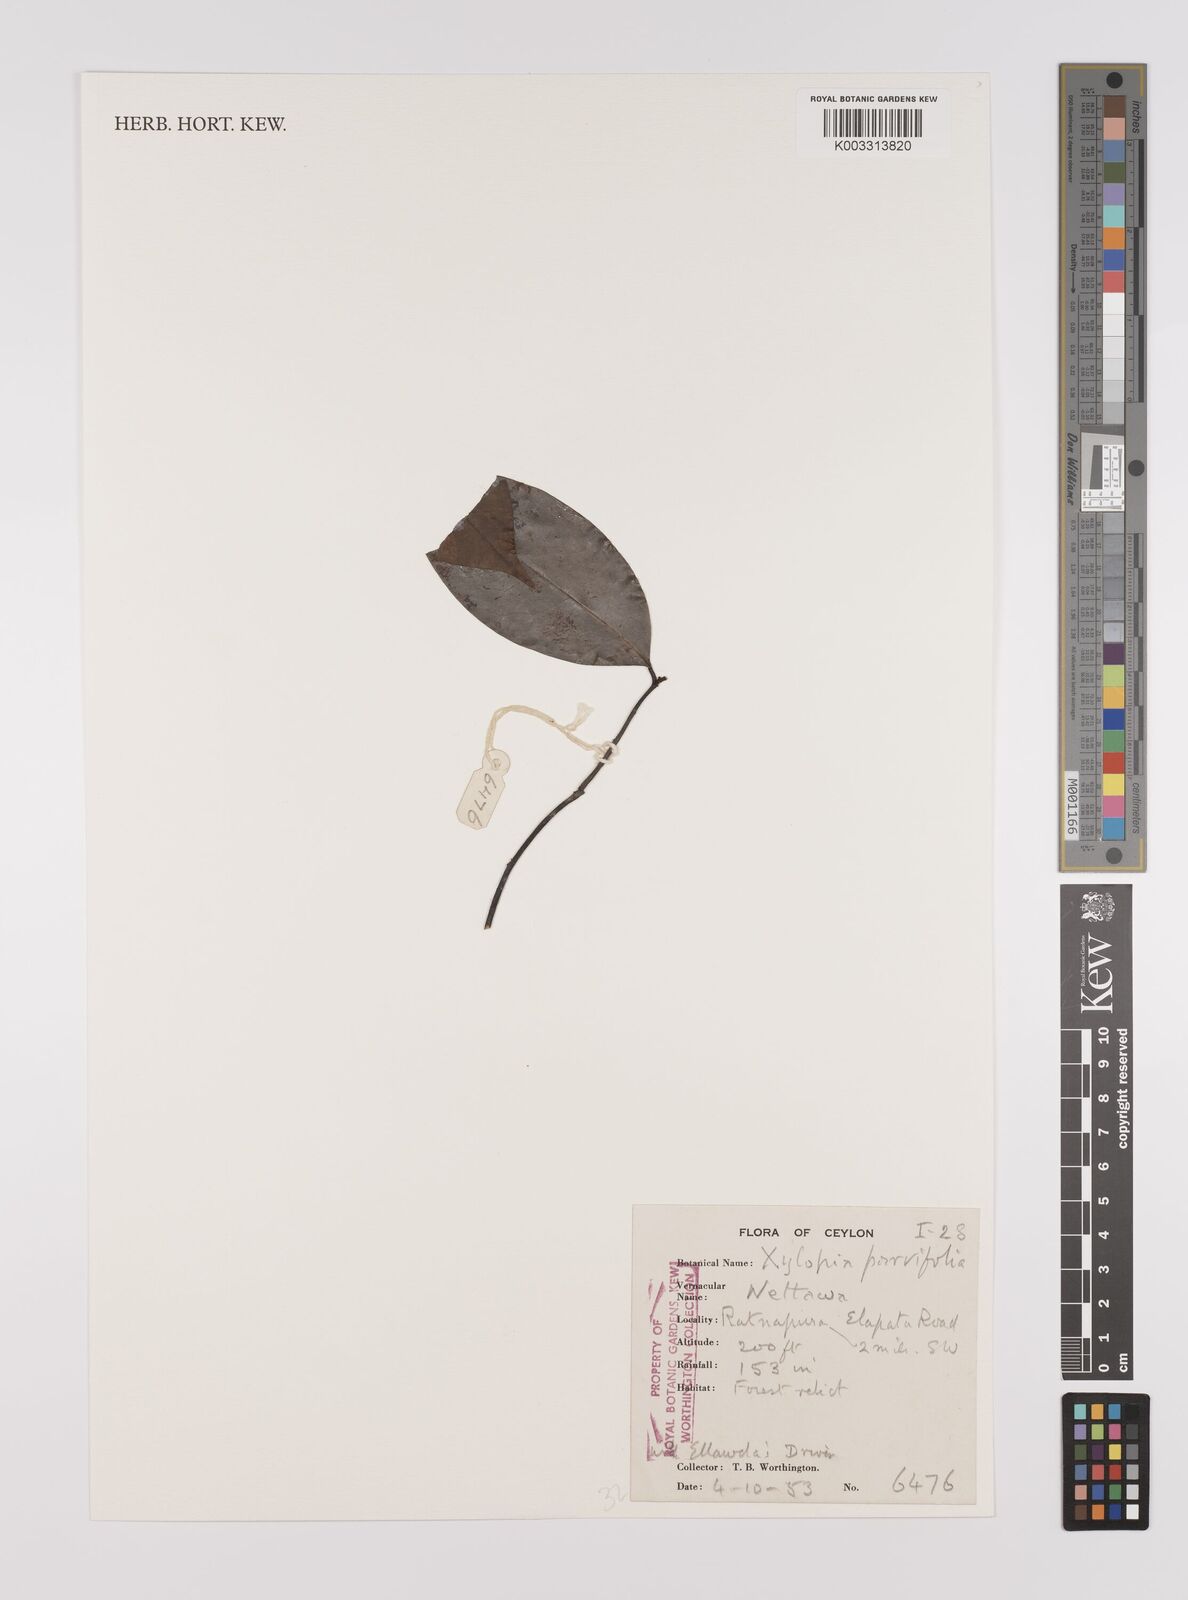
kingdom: Plantae
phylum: Tracheophyta
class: Magnoliopsida
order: Magnoliales
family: Annonaceae
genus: Xylopia
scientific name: Xylopia
